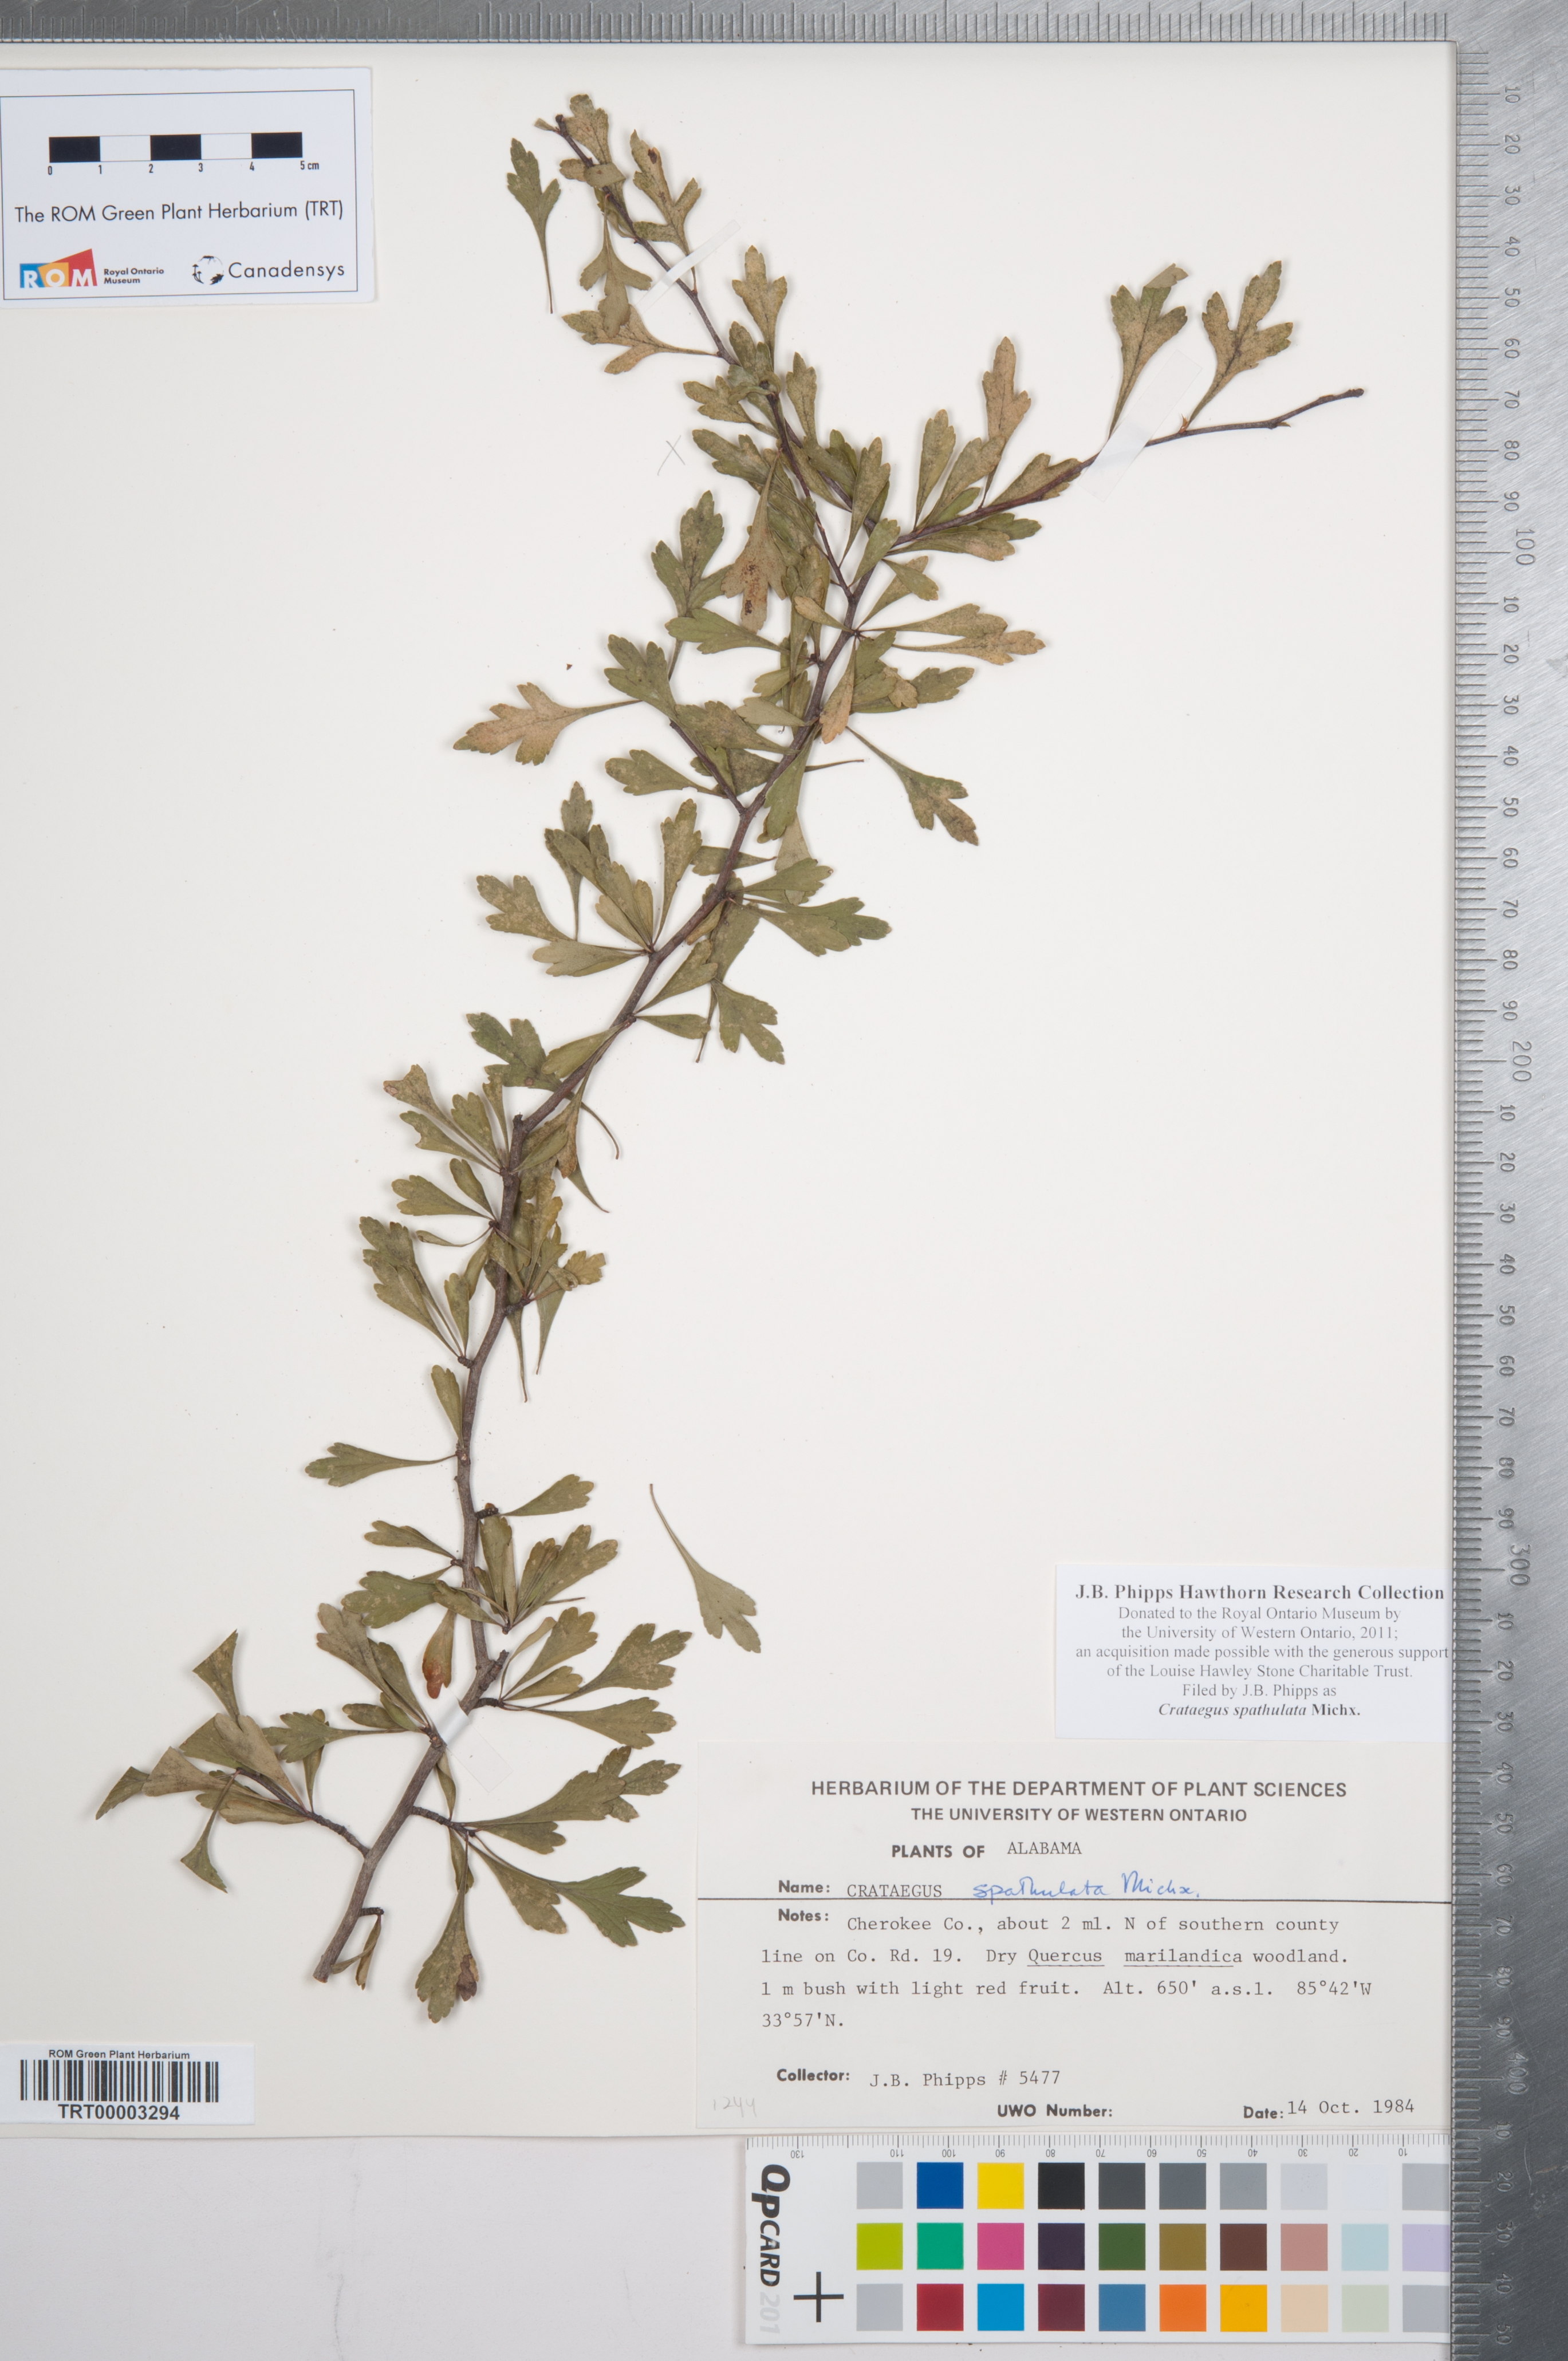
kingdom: Plantae
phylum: Tracheophyta
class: Magnoliopsida
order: Rosales
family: Rosaceae
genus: Crataegus
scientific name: Crataegus spathulata
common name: Littlehip hawthorn
